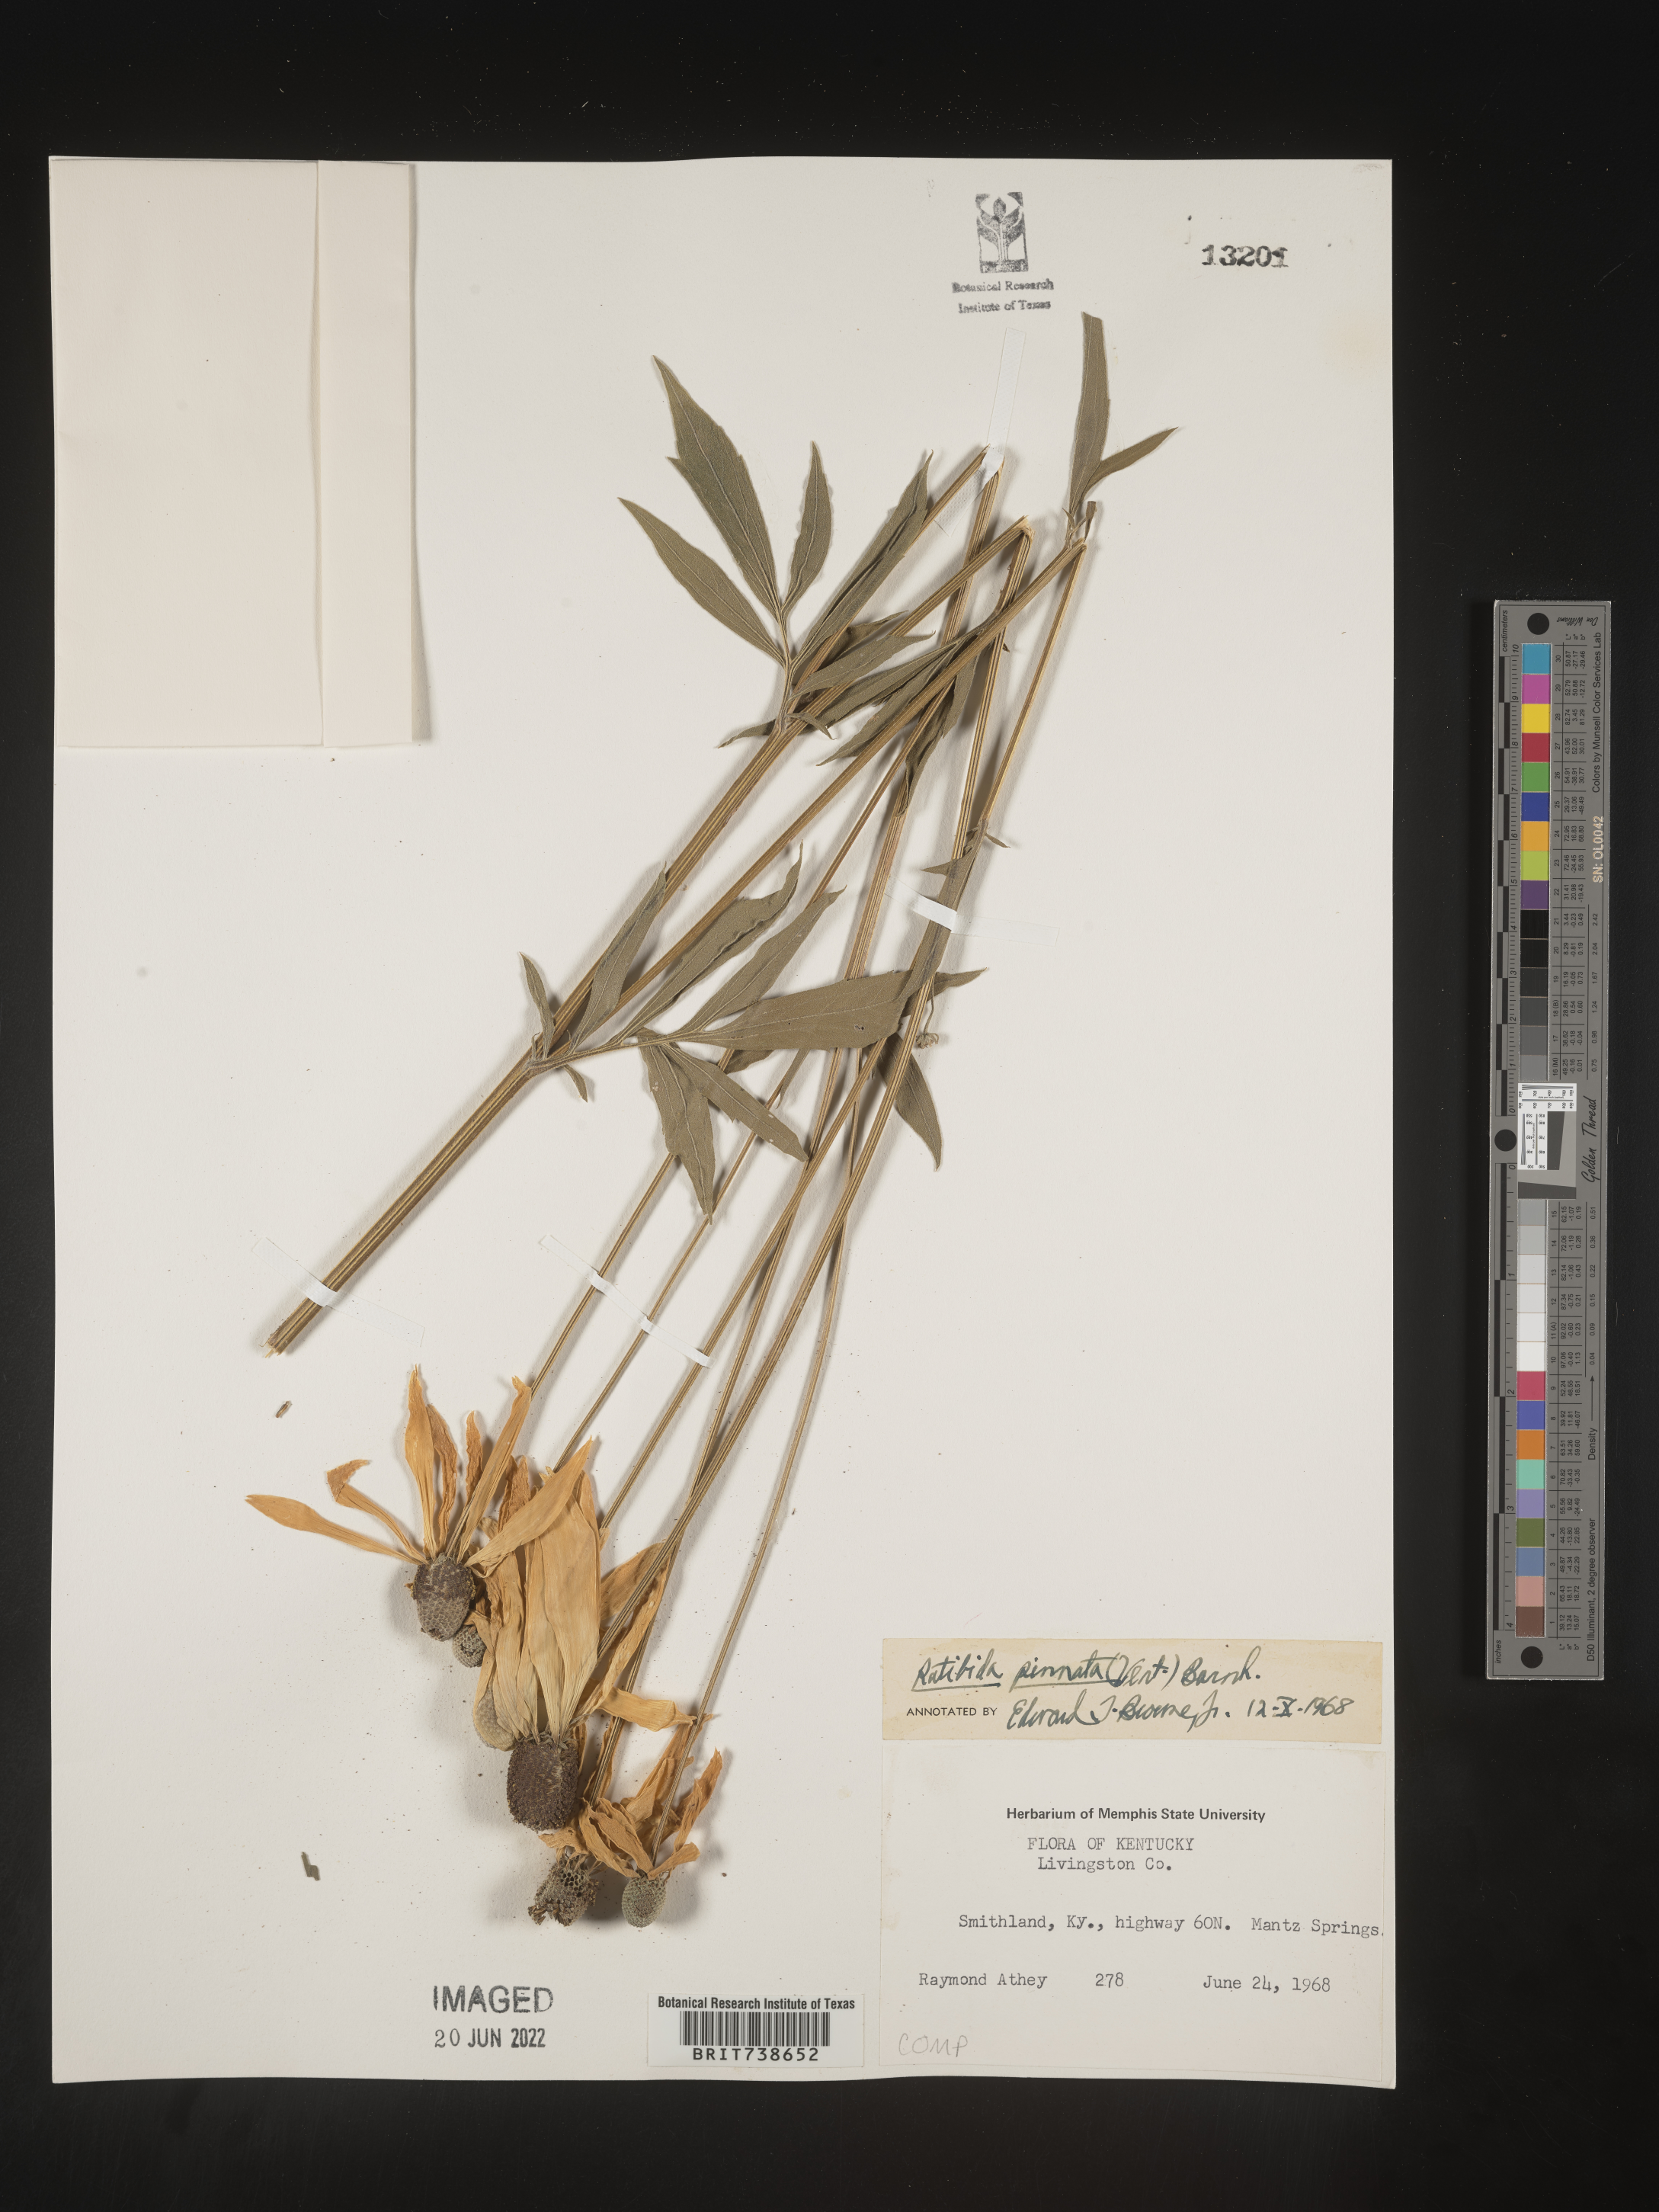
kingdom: Plantae
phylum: Tracheophyta
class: Magnoliopsida
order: Asterales
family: Asteraceae
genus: Ratibida
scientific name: Ratibida pinnata
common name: Drooping prairie-coneflower
